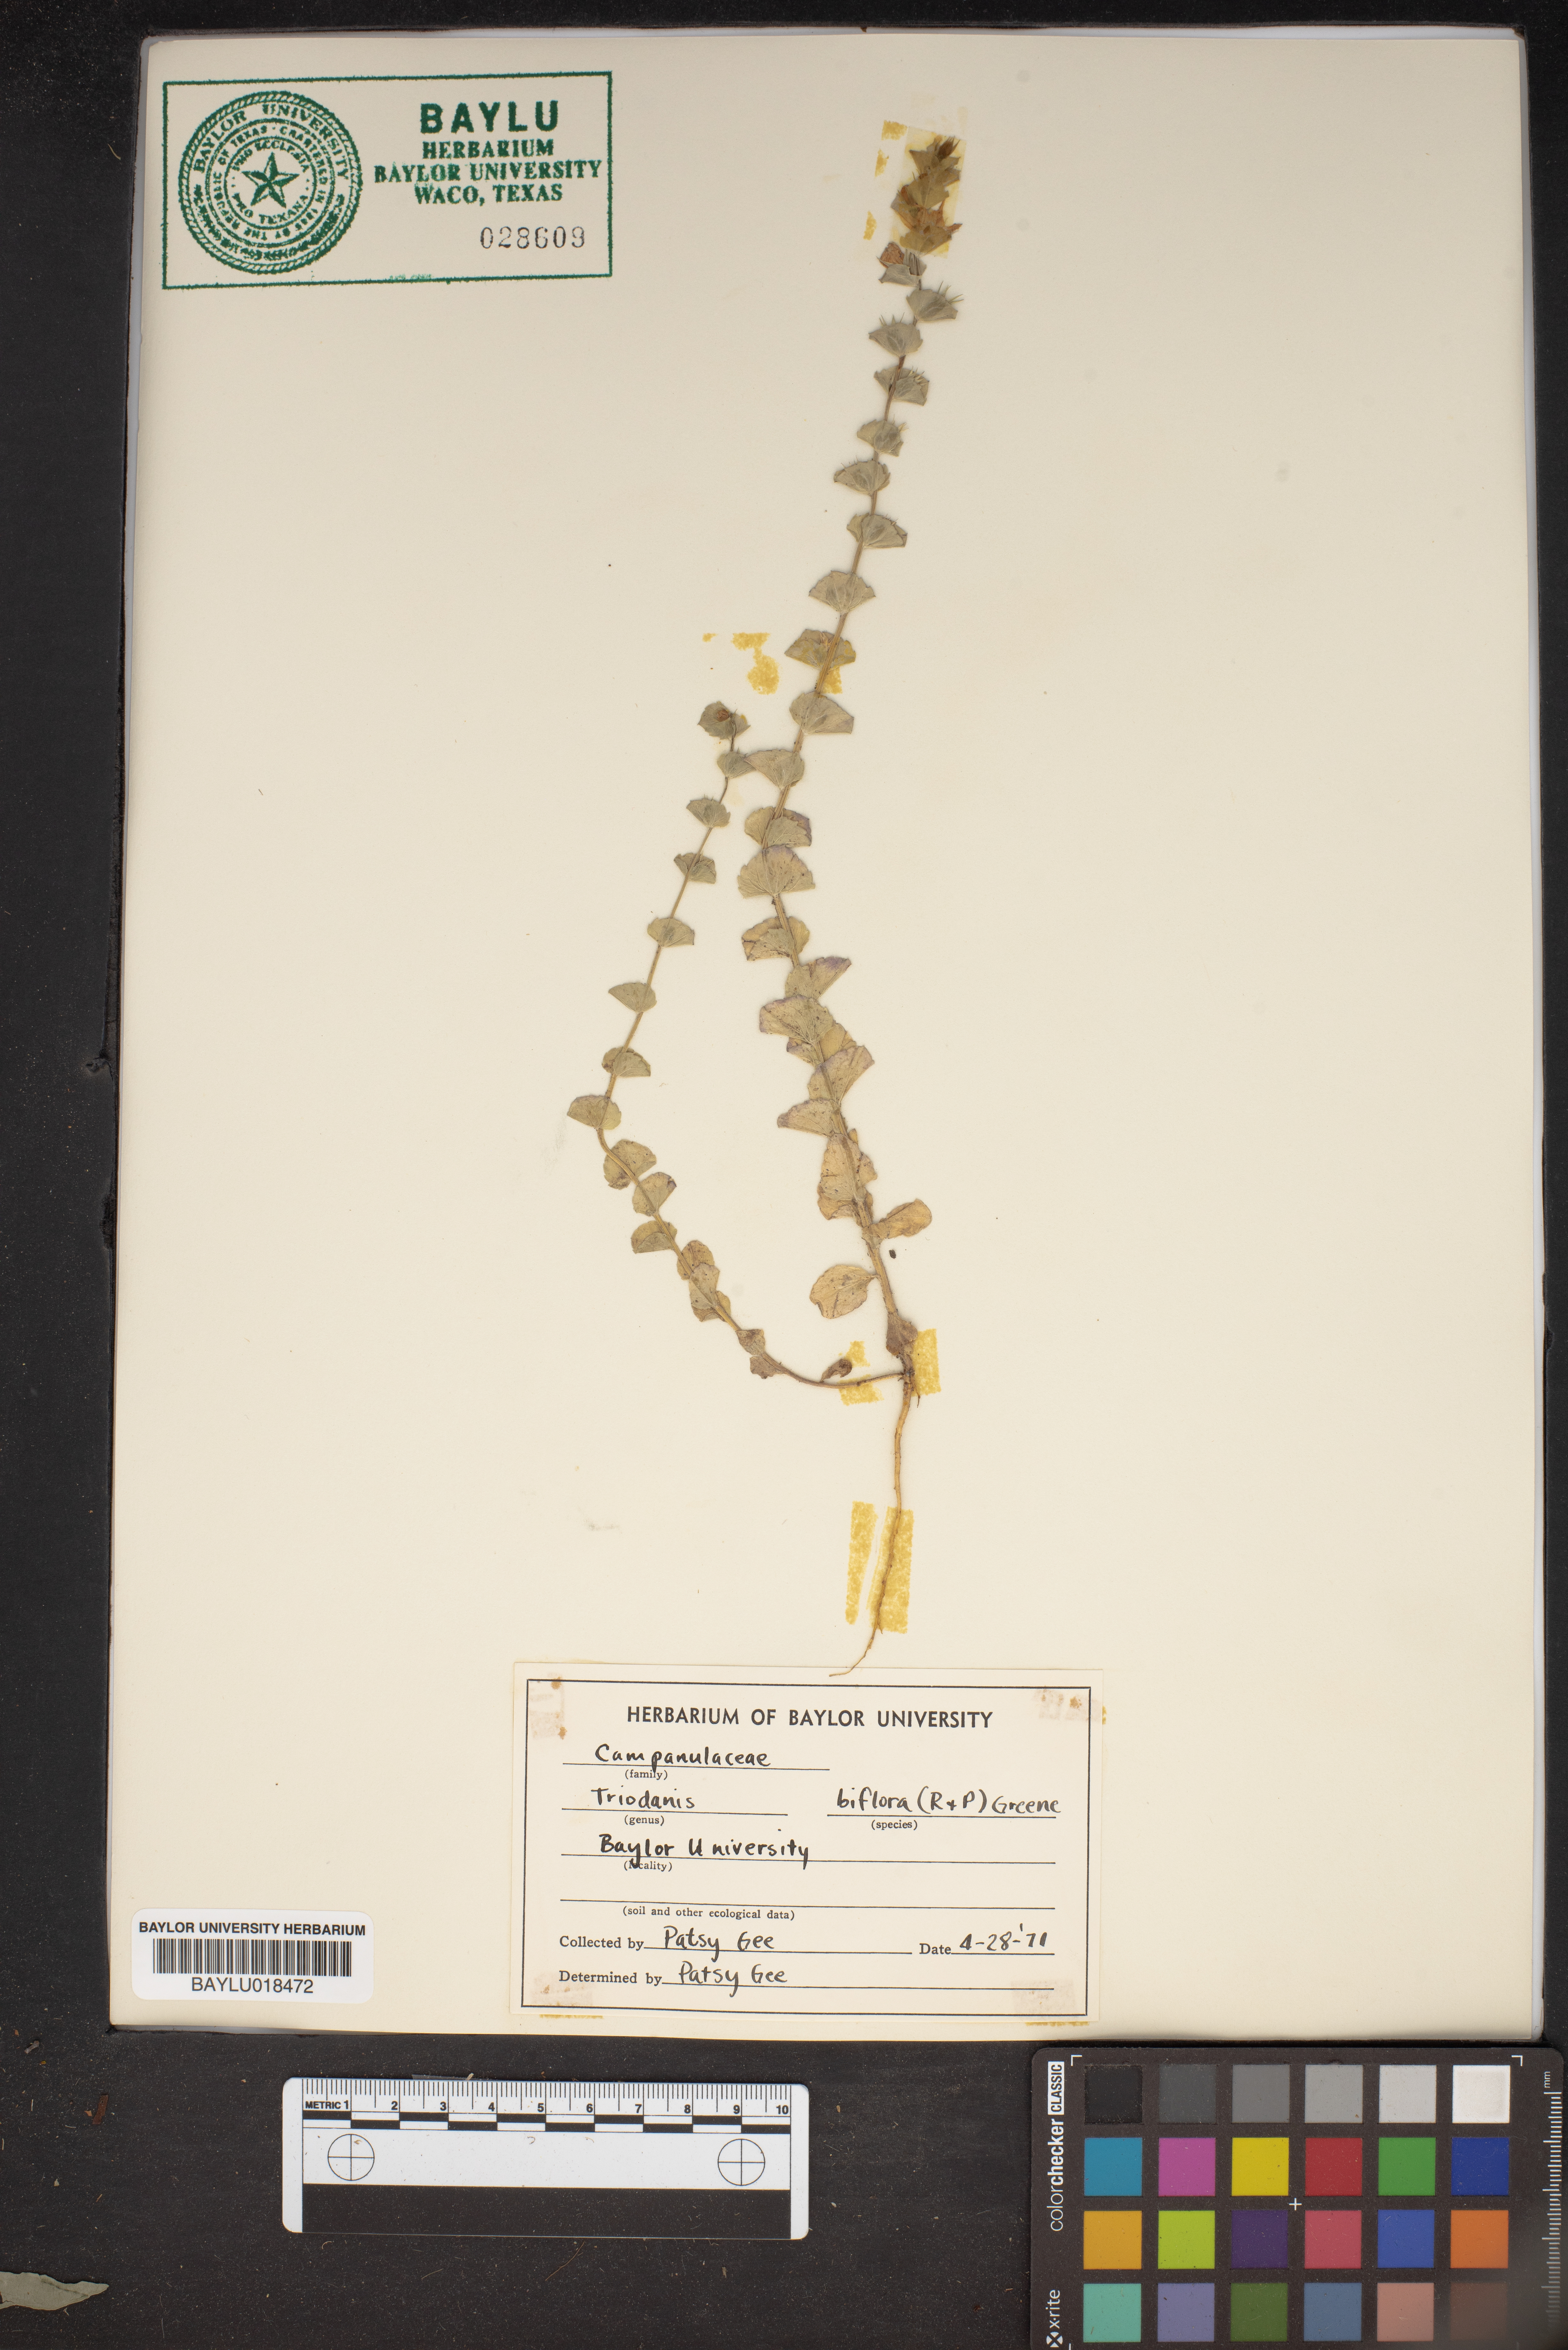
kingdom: Plantae
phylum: Tracheophyta
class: Magnoliopsida
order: Asterales
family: Campanulaceae
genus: Triodanis
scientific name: Triodanis perfoliata
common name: Clasping venus' looking-glass
